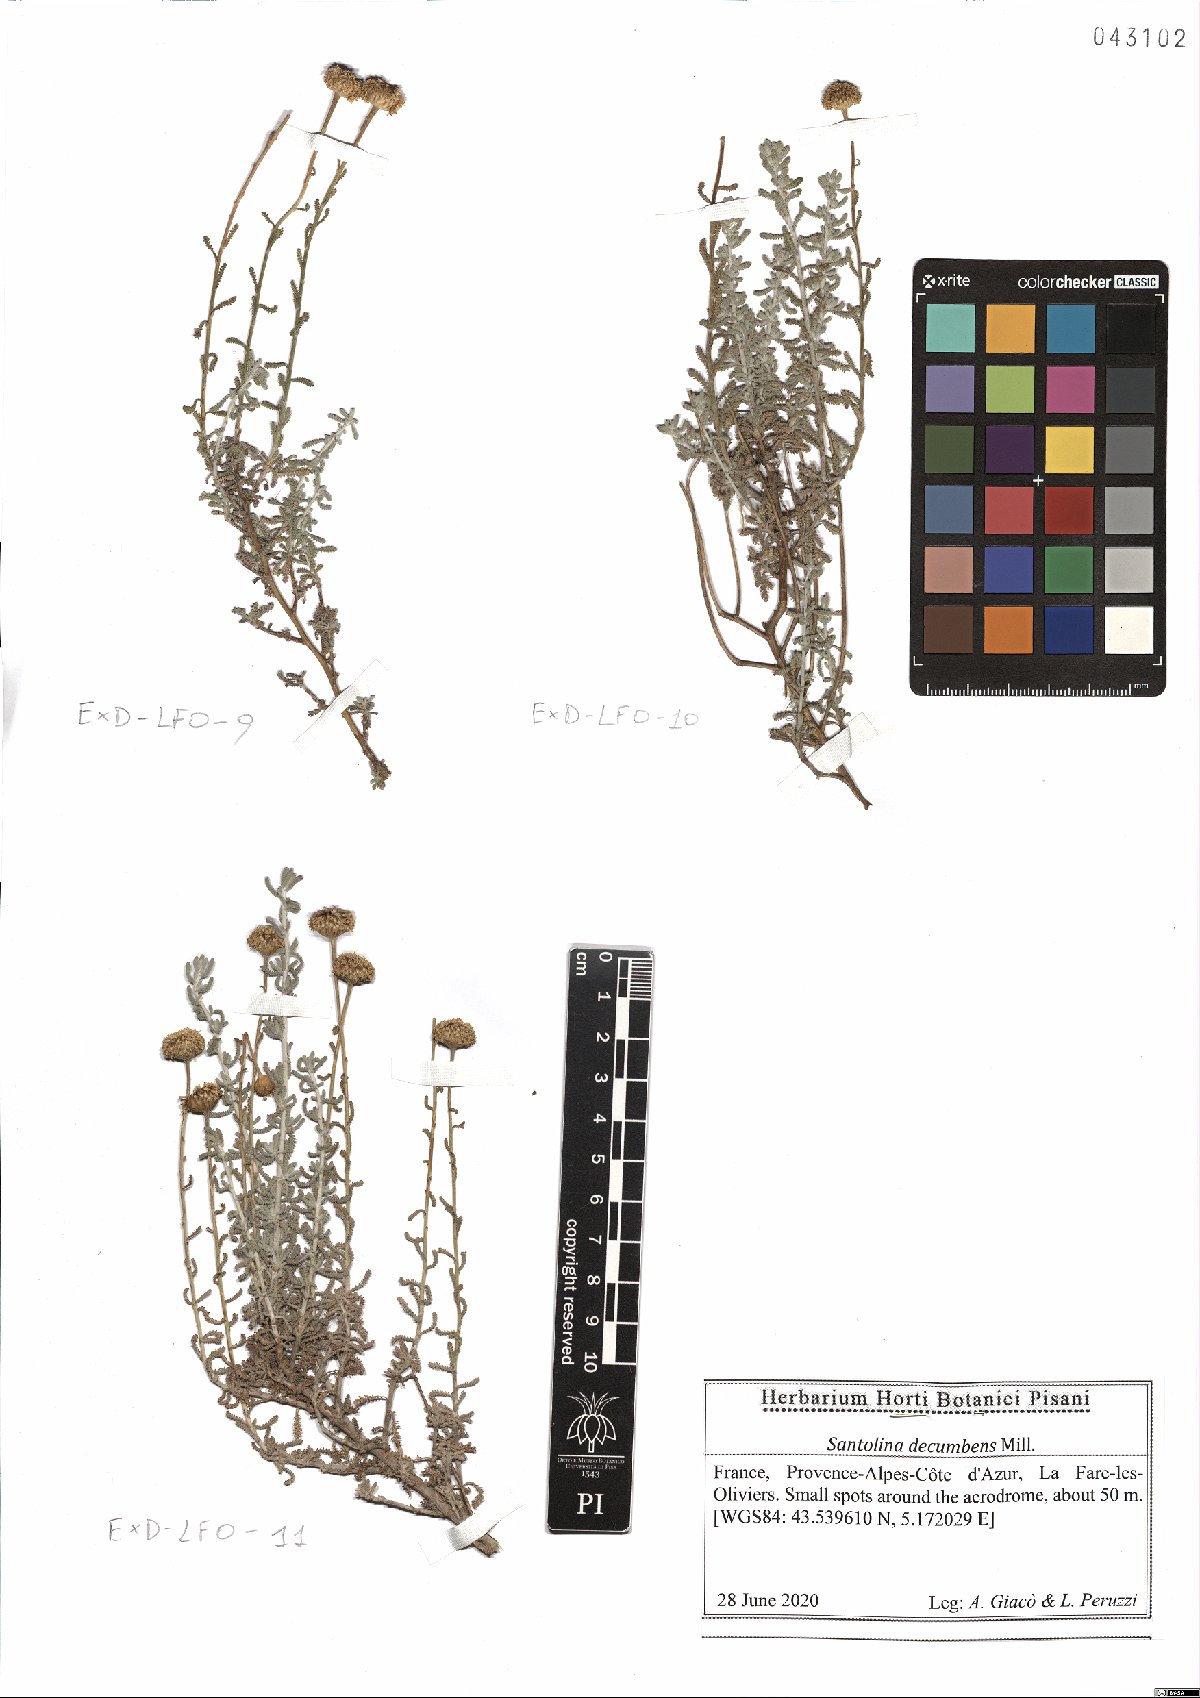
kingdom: Plantae
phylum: Tracheophyta
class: Magnoliopsida
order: Asterales
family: Asteraceae
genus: Santolina
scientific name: Santolina decumbens
